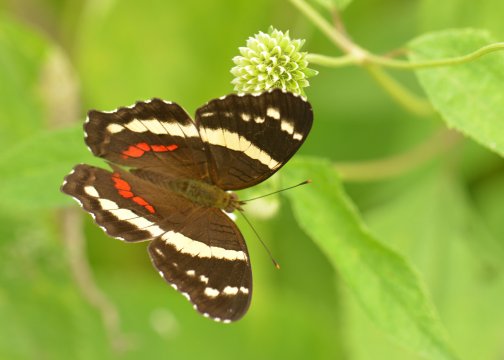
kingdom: Animalia
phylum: Arthropoda
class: Insecta
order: Lepidoptera
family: Nymphalidae
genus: Anartia
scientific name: Anartia fatima
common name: Banded Peacock
